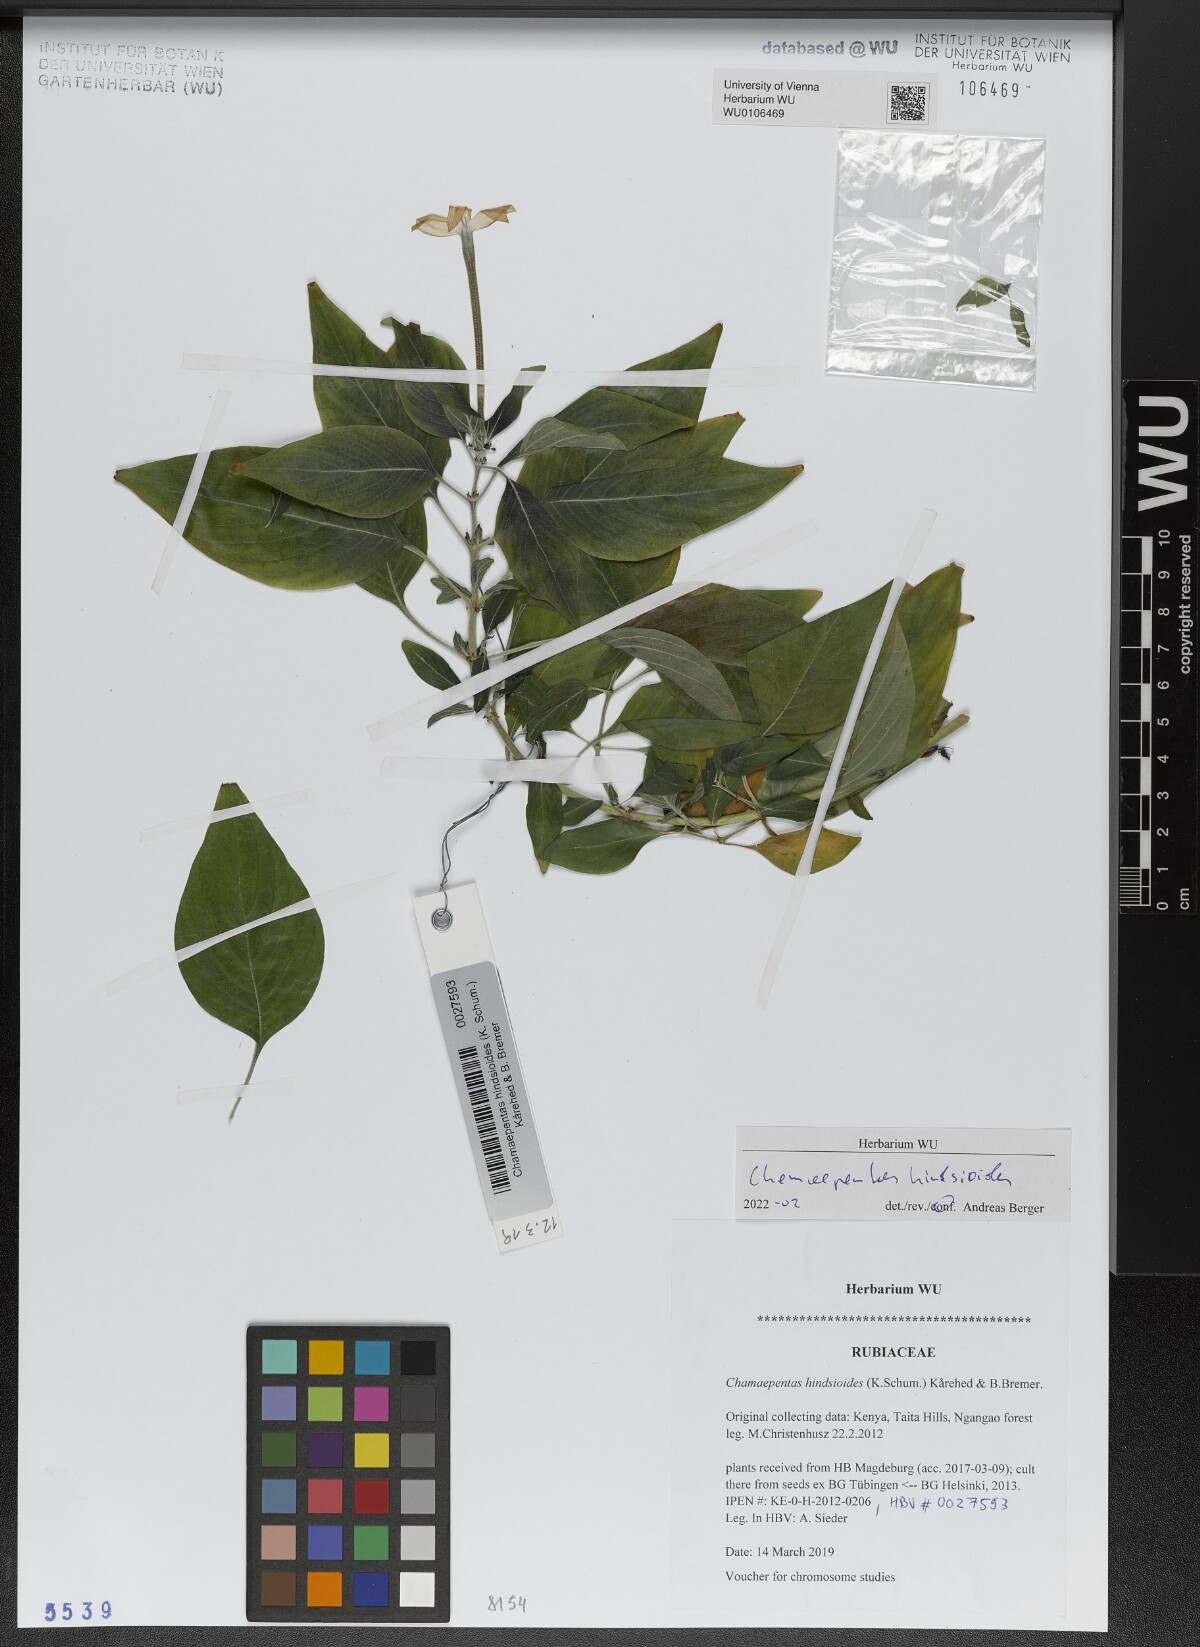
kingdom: Plantae
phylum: Tracheophyta
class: Magnoliopsida
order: Gentianales
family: Rubiaceae
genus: Chamaepentas
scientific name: Chamaepentas hindsioides
